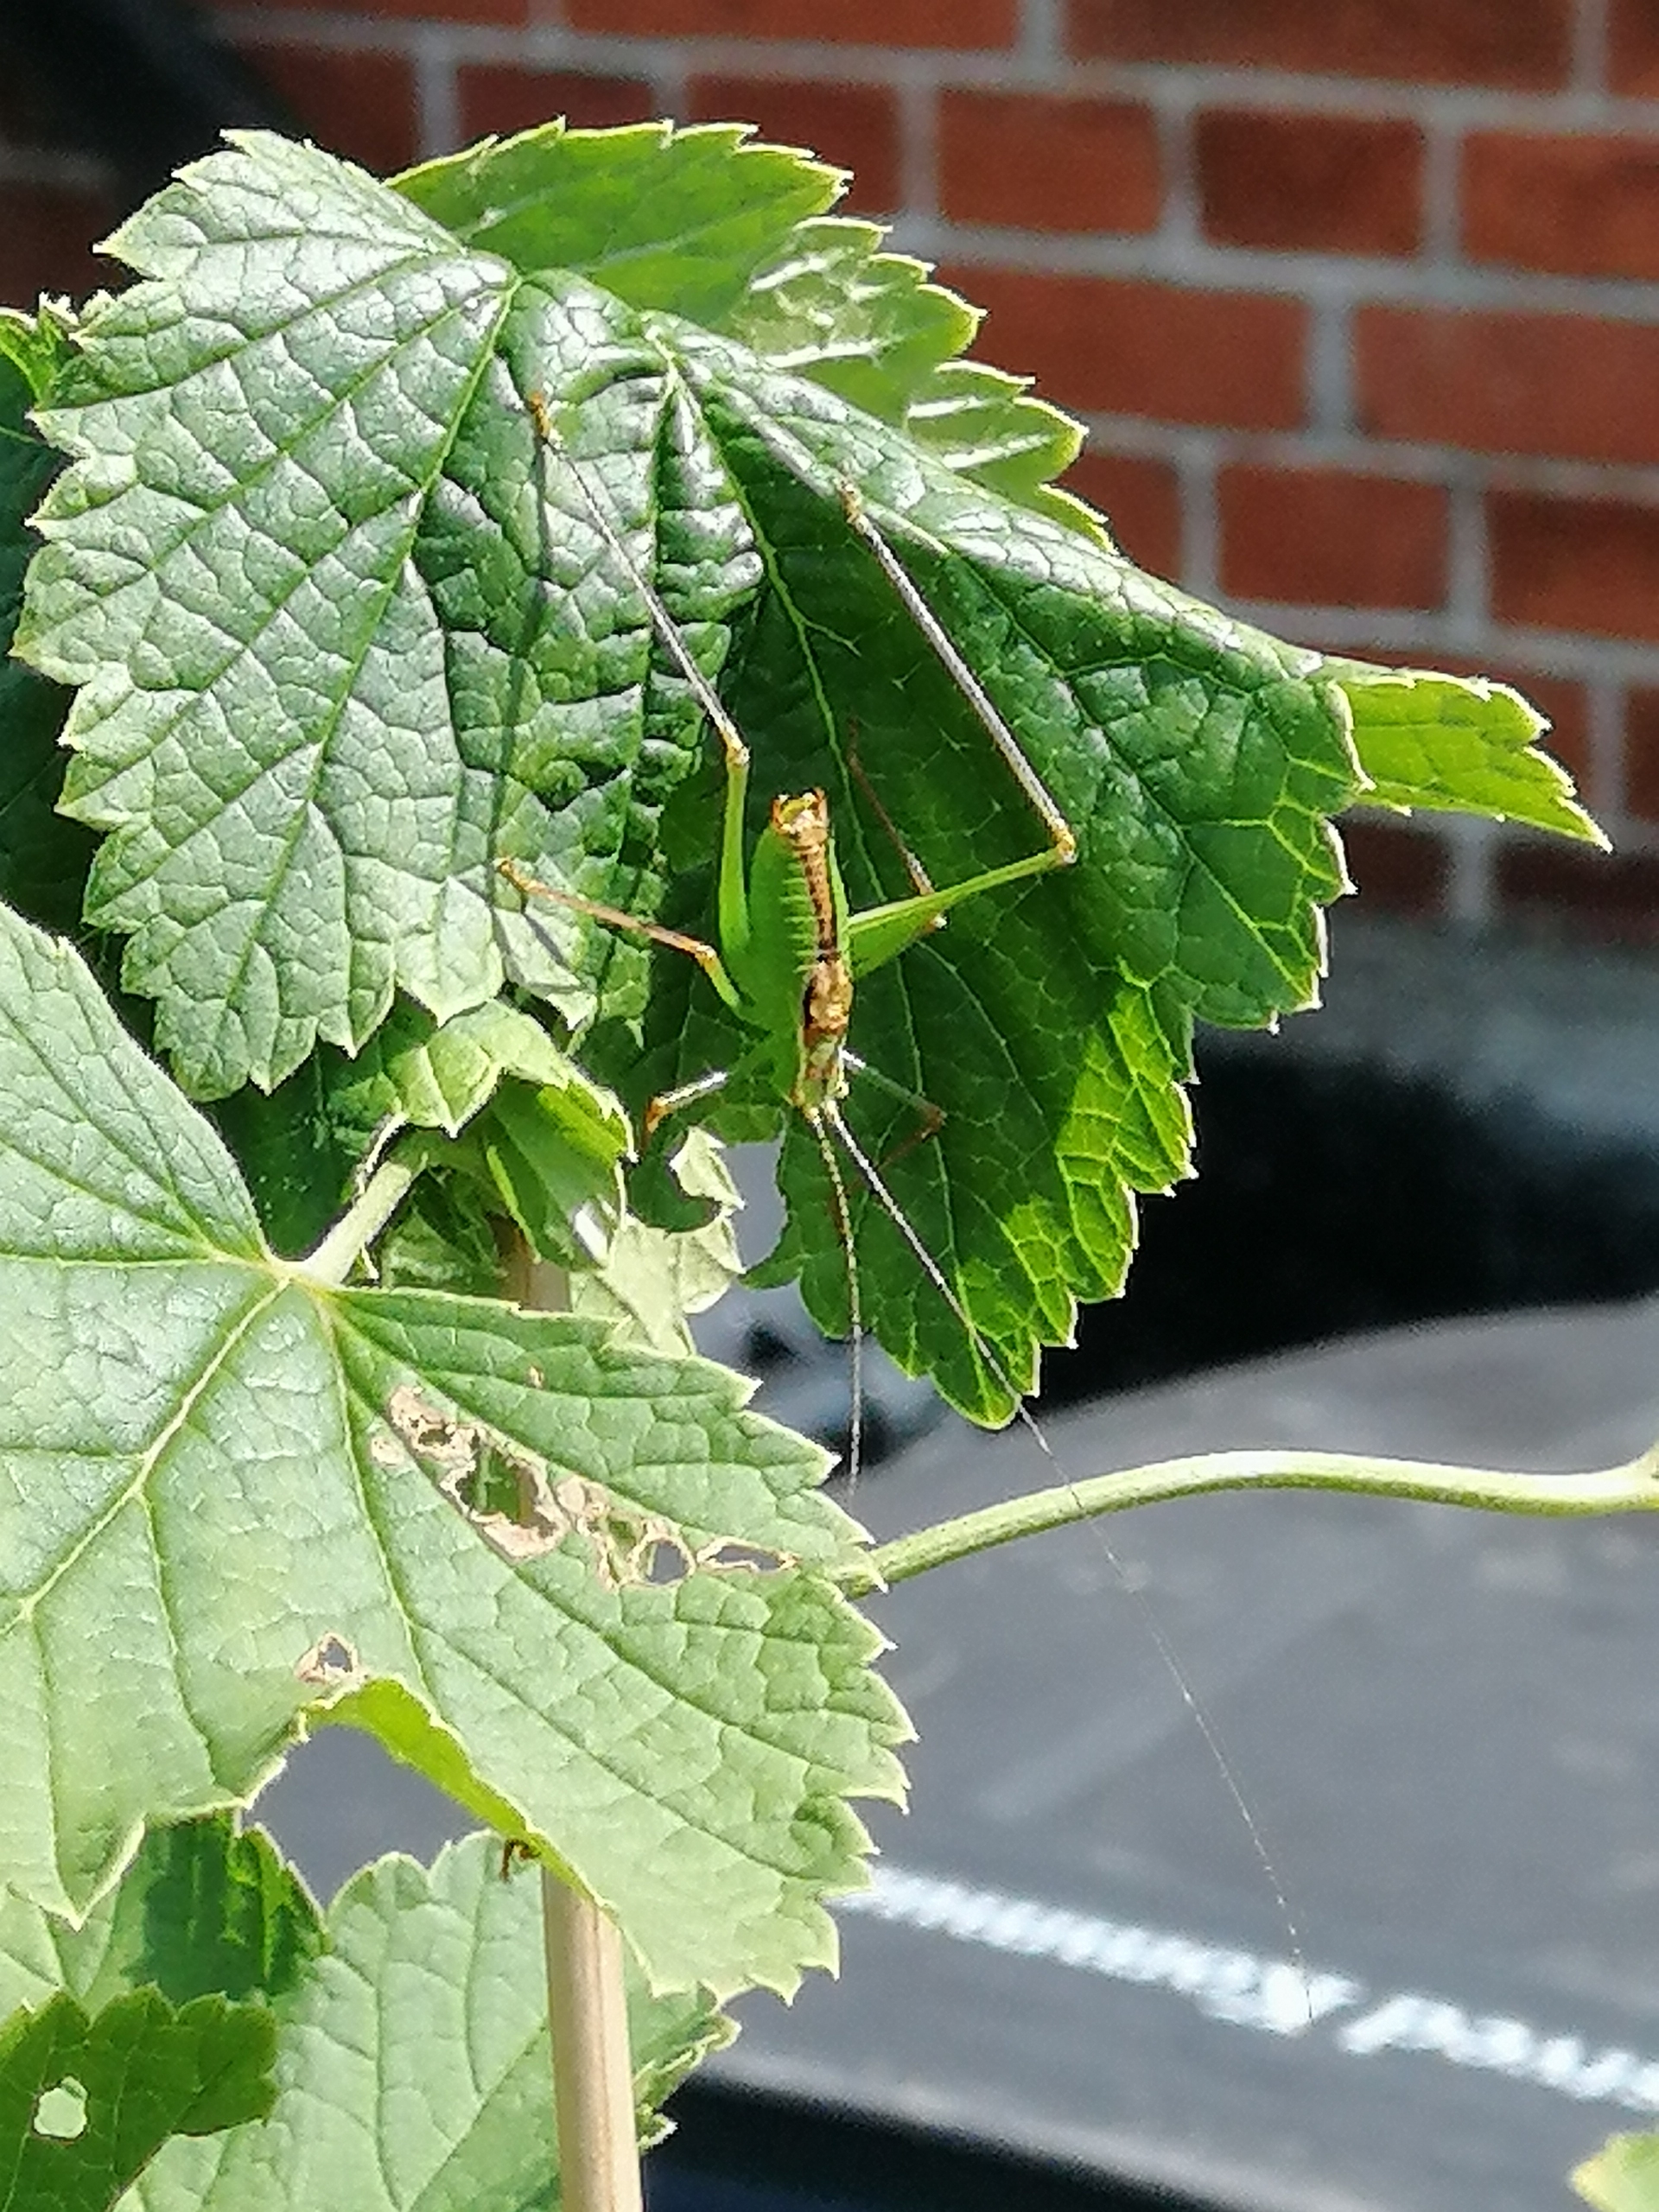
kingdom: Animalia
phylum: Arthropoda
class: Insecta
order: Orthoptera
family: Tettigoniidae
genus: Leptophyes
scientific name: Leptophyes punctatissima
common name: Krumknivgræshoppe
